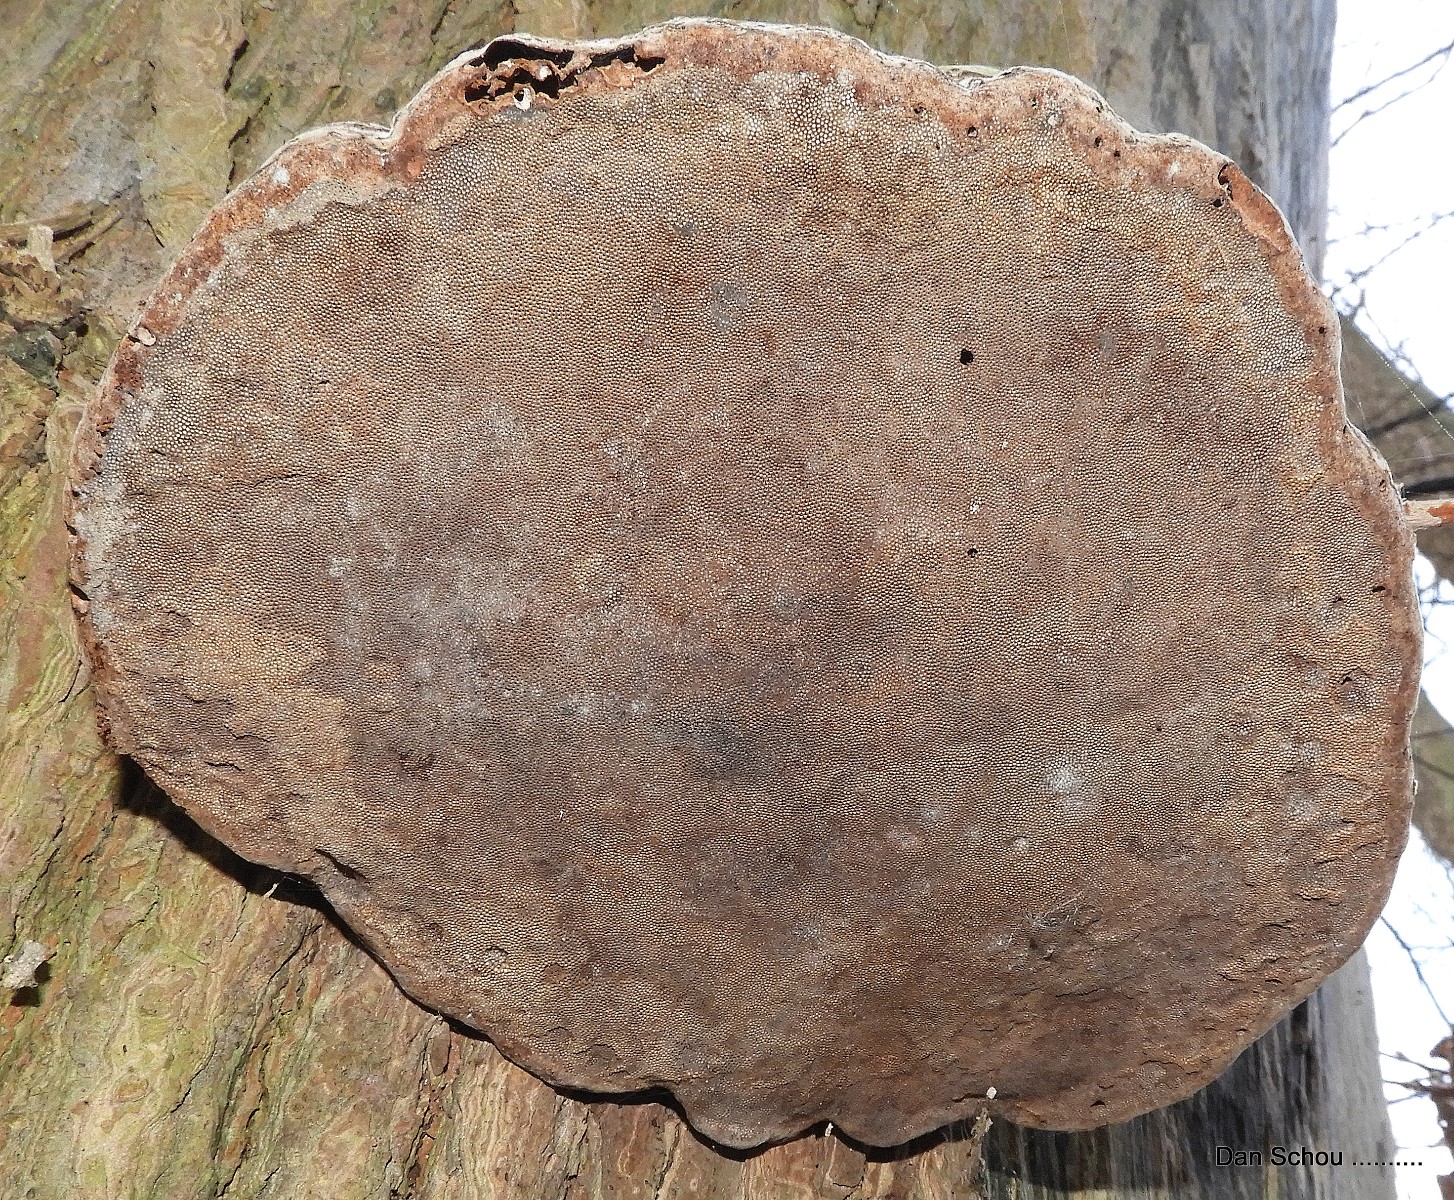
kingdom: Fungi
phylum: Basidiomycota
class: Agaricomycetes
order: Polyporales
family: Polyporaceae
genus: Fomes
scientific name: Fomes fomentarius
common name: tøndersvamp
